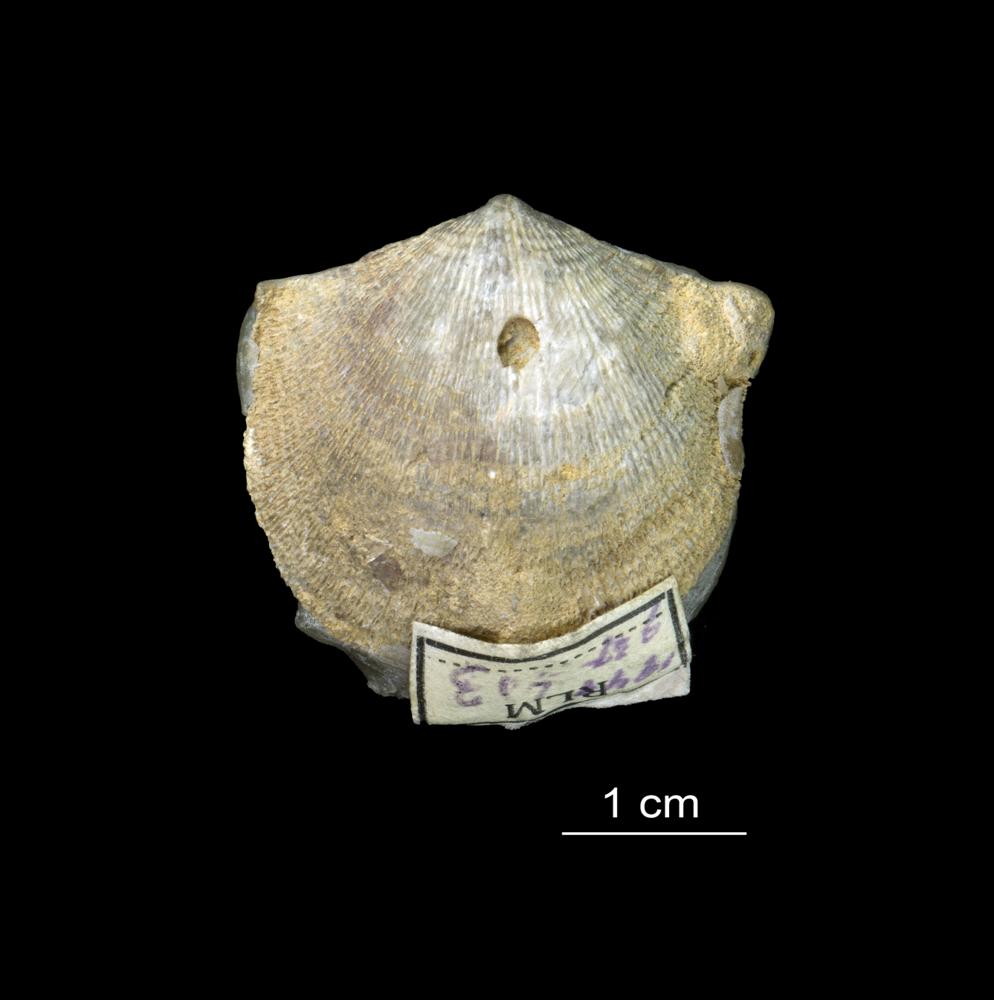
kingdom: Animalia
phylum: Brachiopoda
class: Rhynchonellata
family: Clitambonitidae
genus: Clitambonites
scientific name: Clitambonites squamatus
